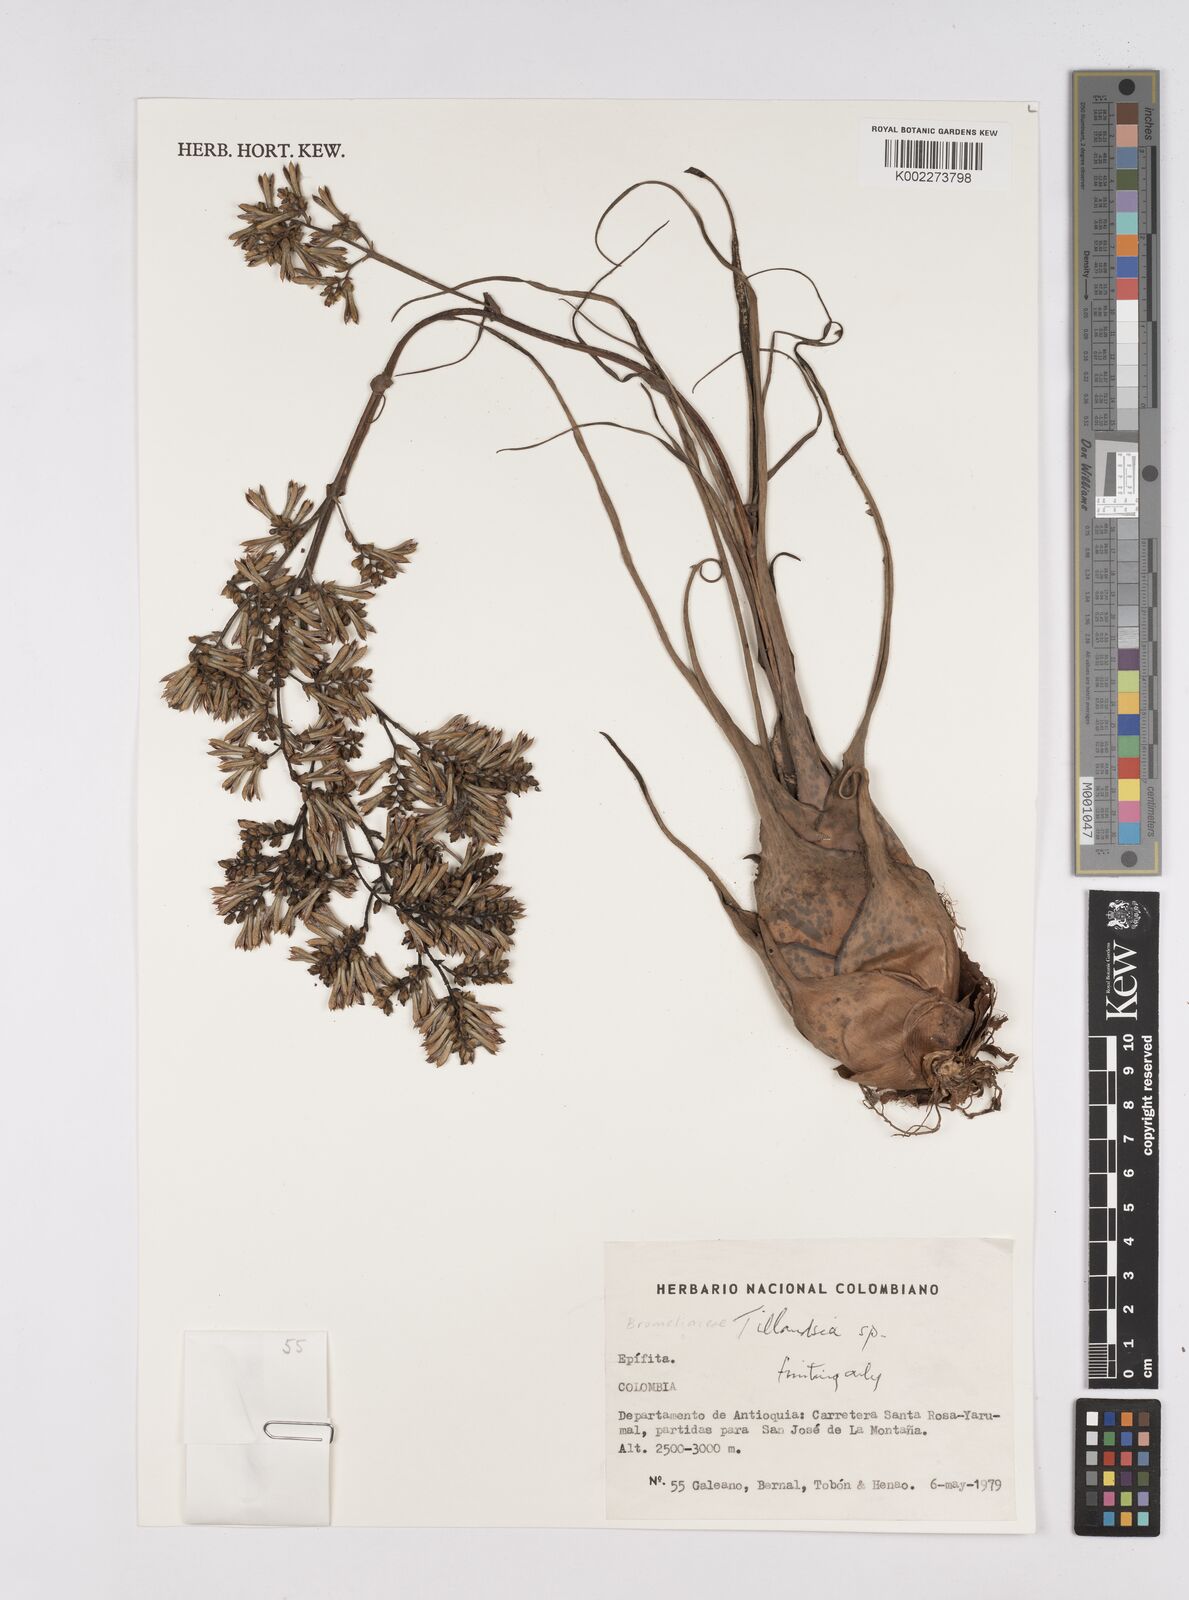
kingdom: Plantae
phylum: Tracheophyta
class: Liliopsida
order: Poales
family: Bromeliaceae
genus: Tillandsia
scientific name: Tillandsia
